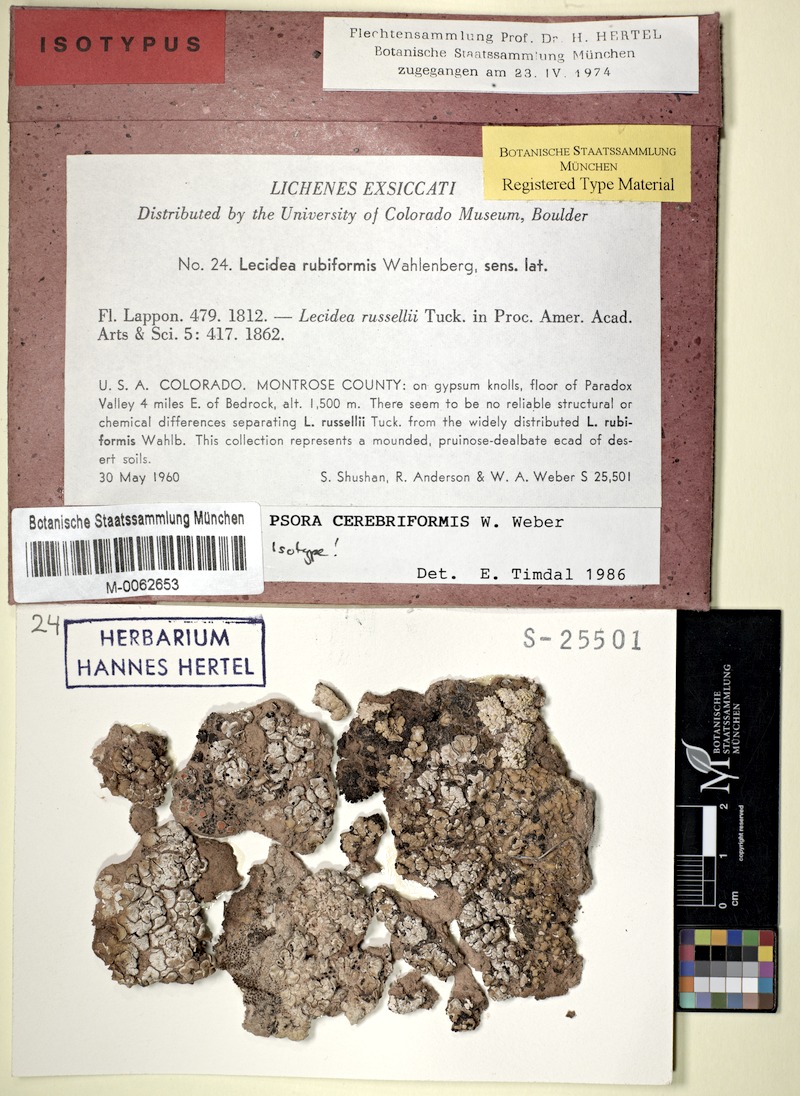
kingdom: Fungi
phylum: Ascomycota
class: Lecanoromycetes
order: Lecanorales
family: Psoraceae
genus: Psora
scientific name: Psora cerebriformis
